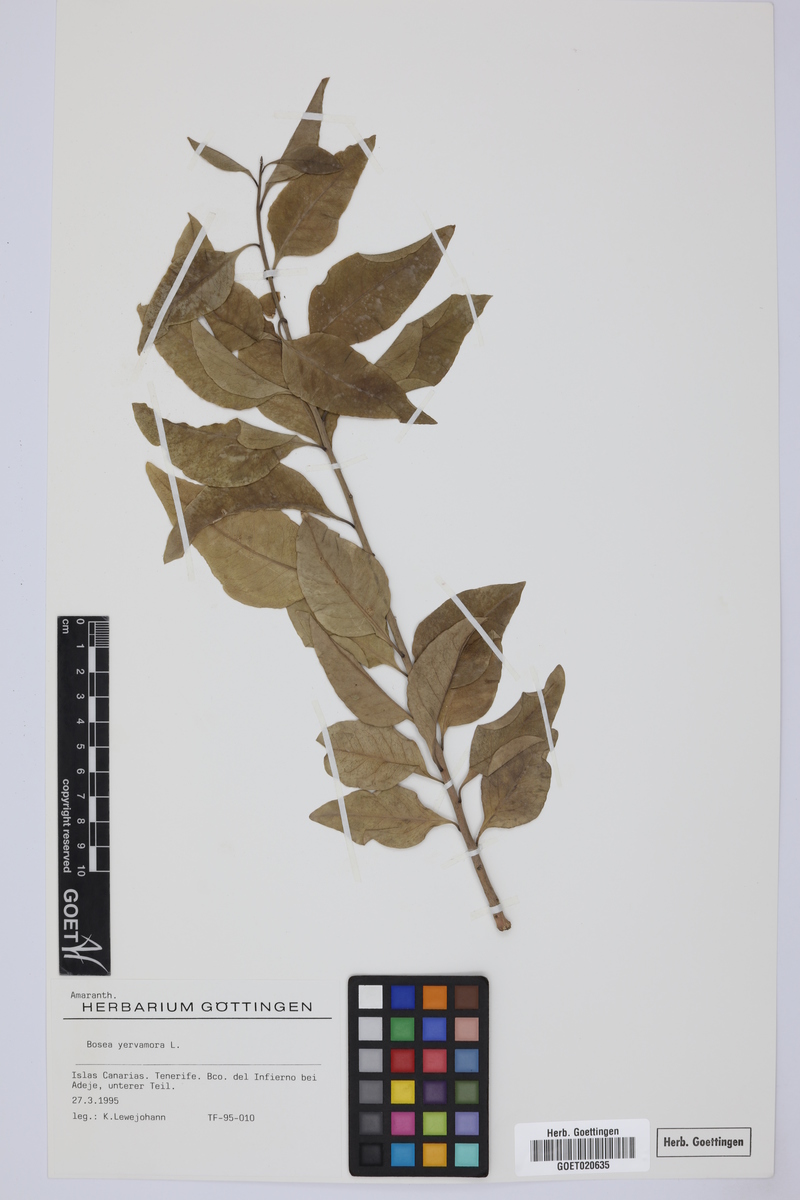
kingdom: Plantae
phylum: Tracheophyta
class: Magnoliopsida
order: Caryophyllales
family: Amaranthaceae
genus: Bosea
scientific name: Bosea yervamora
